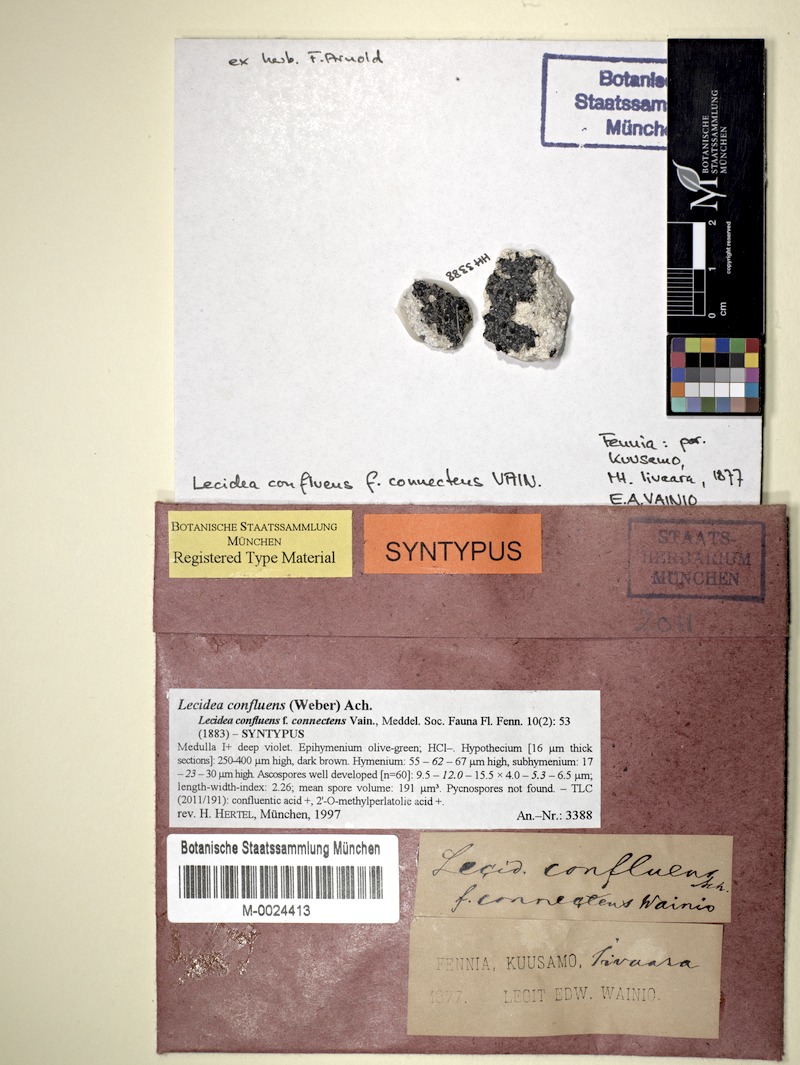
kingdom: Fungi
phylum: Ascomycota
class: Lecanoromycetes
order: Lecideales
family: Lecideaceae
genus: Lecidea
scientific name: Lecidea confluens
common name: Confluent disc lichen
